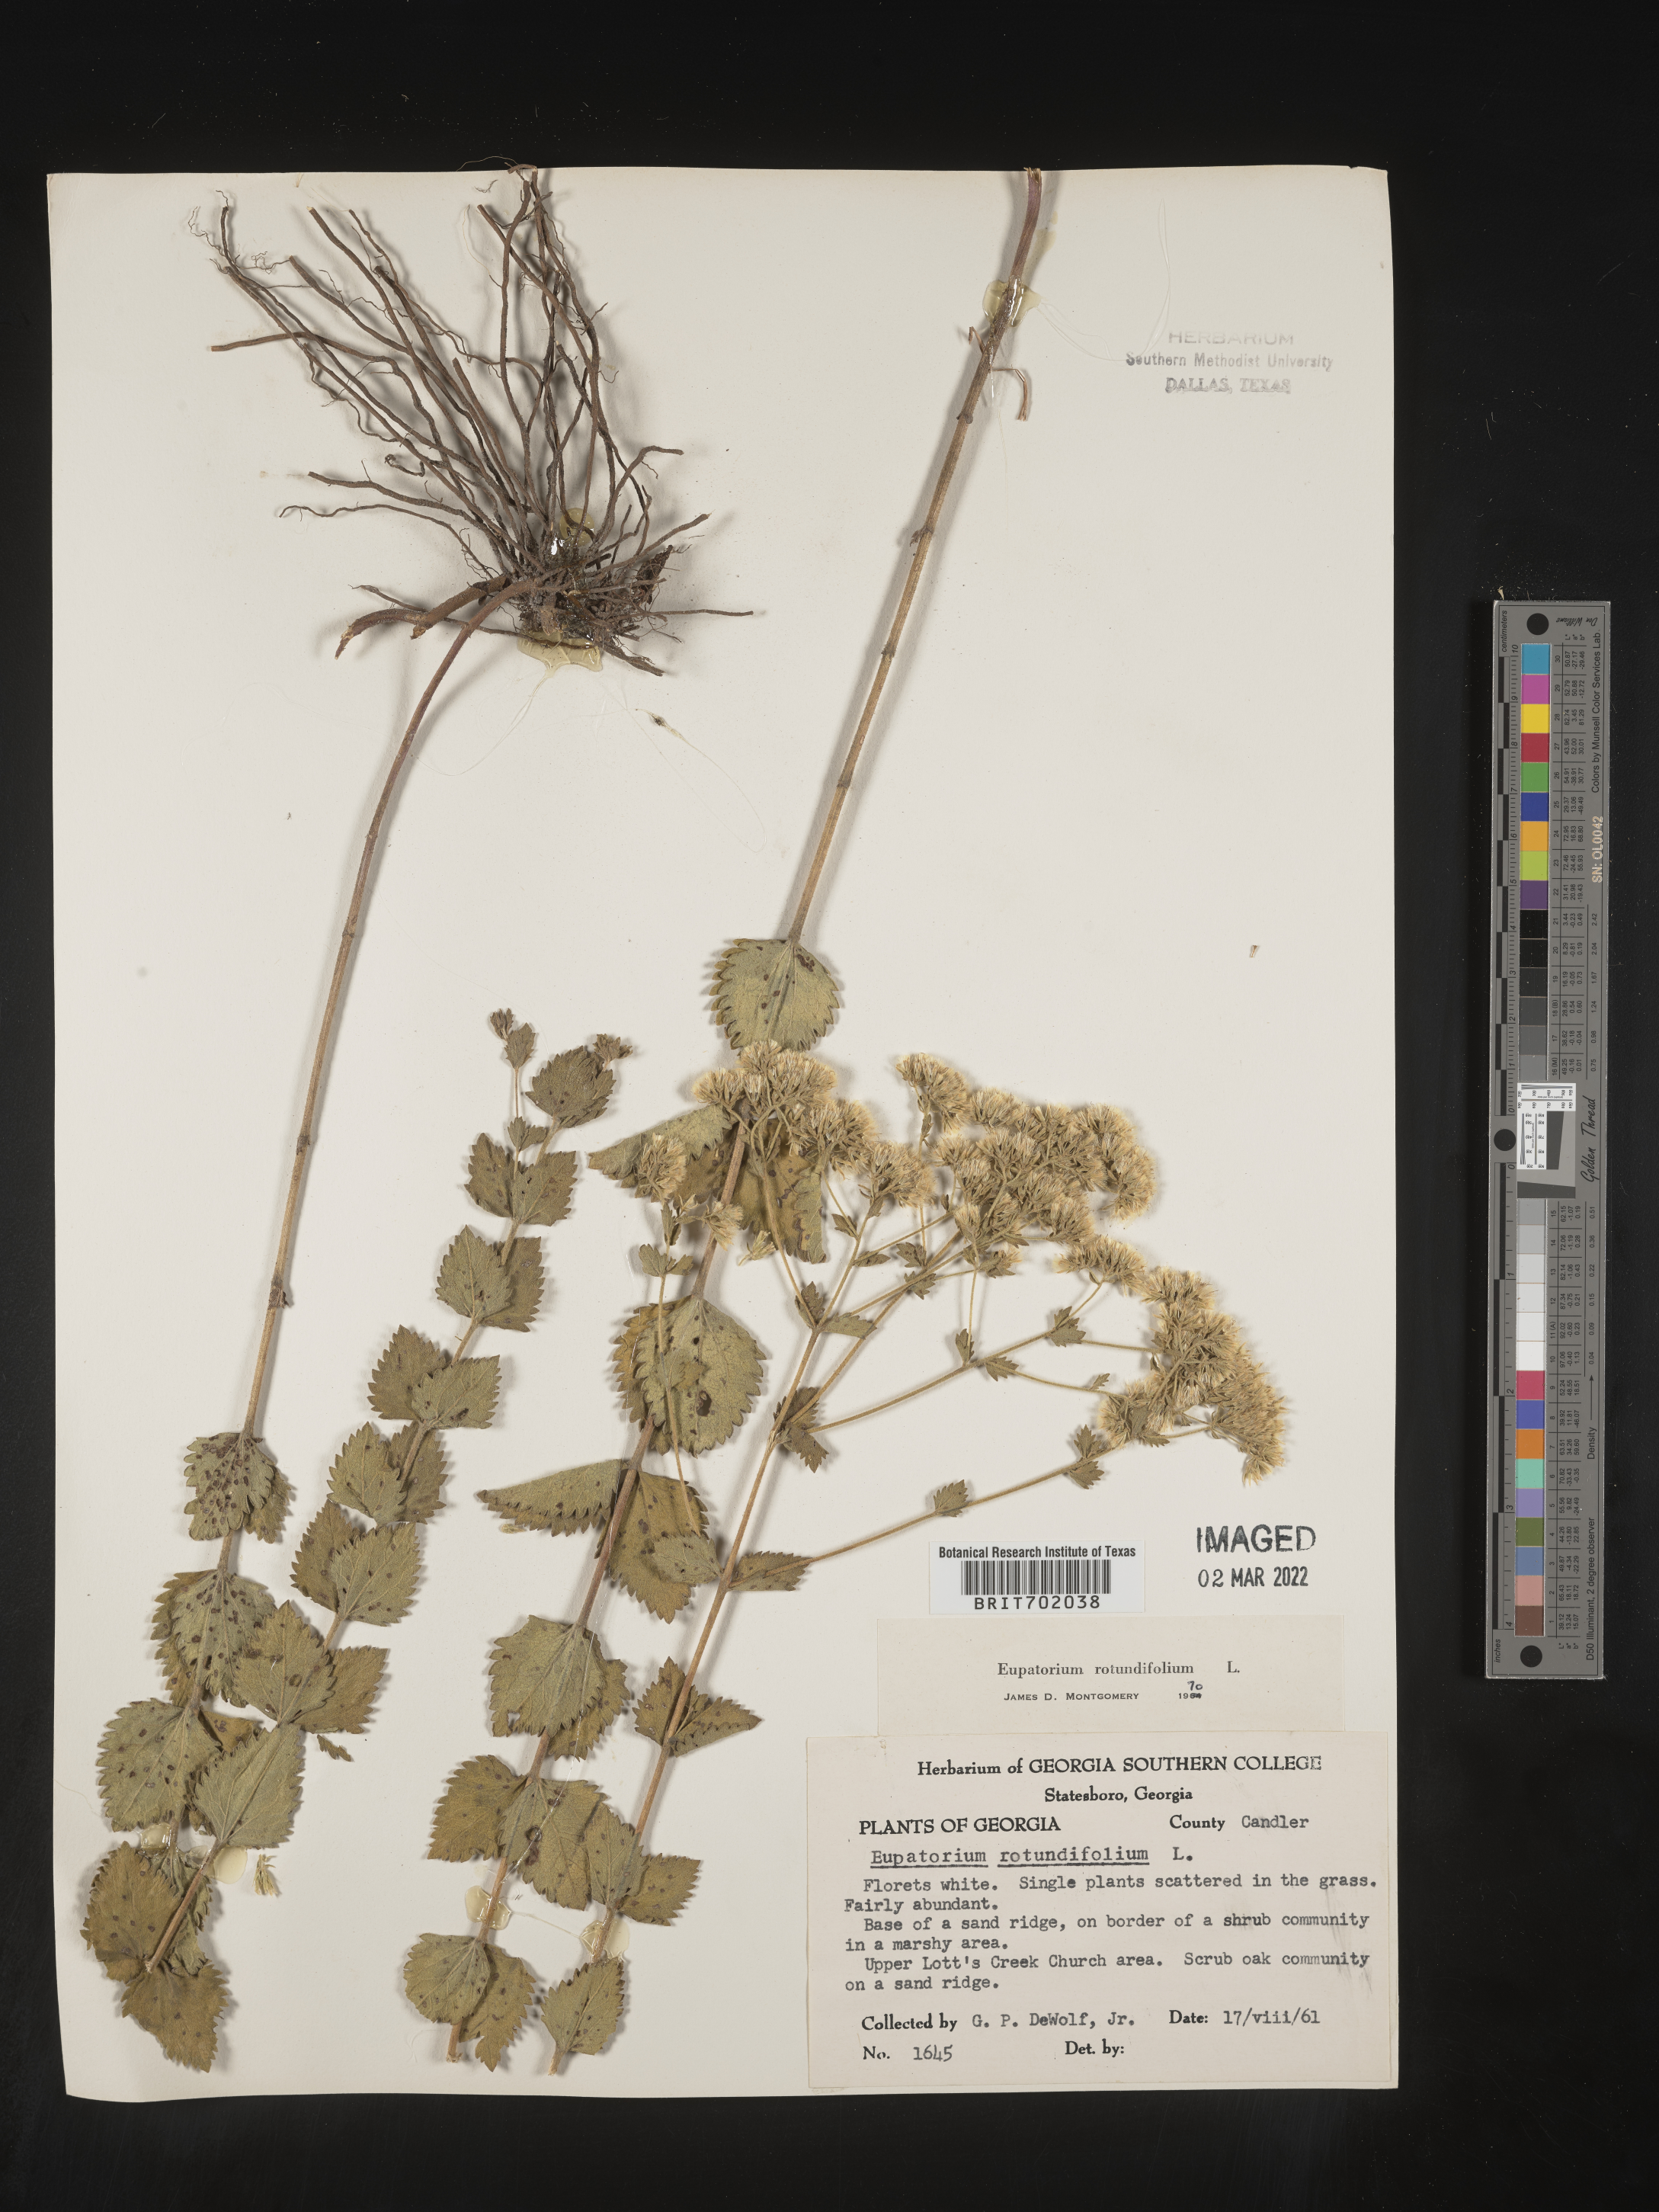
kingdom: Plantae
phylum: Tracheophyta
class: Magnoliopsida
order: Asterales
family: Asteraceae
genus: Eupatorium
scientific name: Eupatorium rotundifolium
